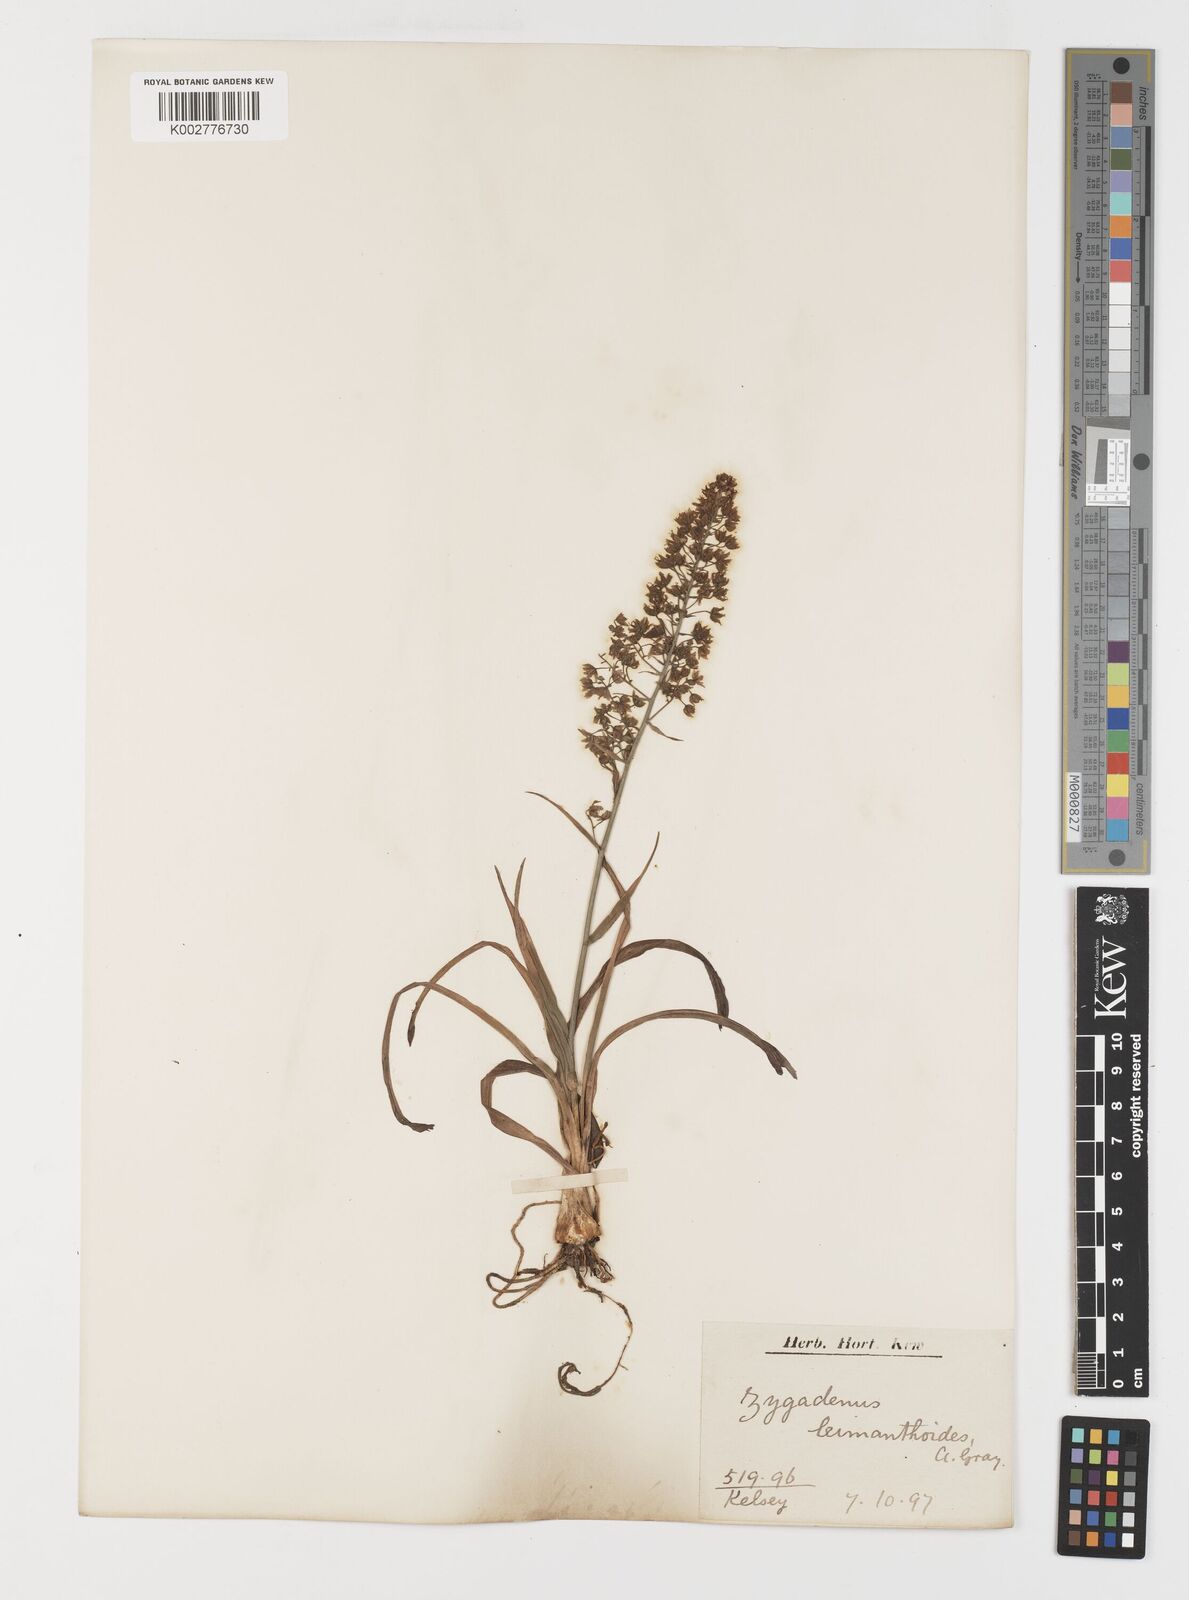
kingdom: Plantae
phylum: Tracheophyta
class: Liliopsida
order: Liliales
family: Melanthiaceae
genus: Stenanthium
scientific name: Stenanthium leimanthoides
